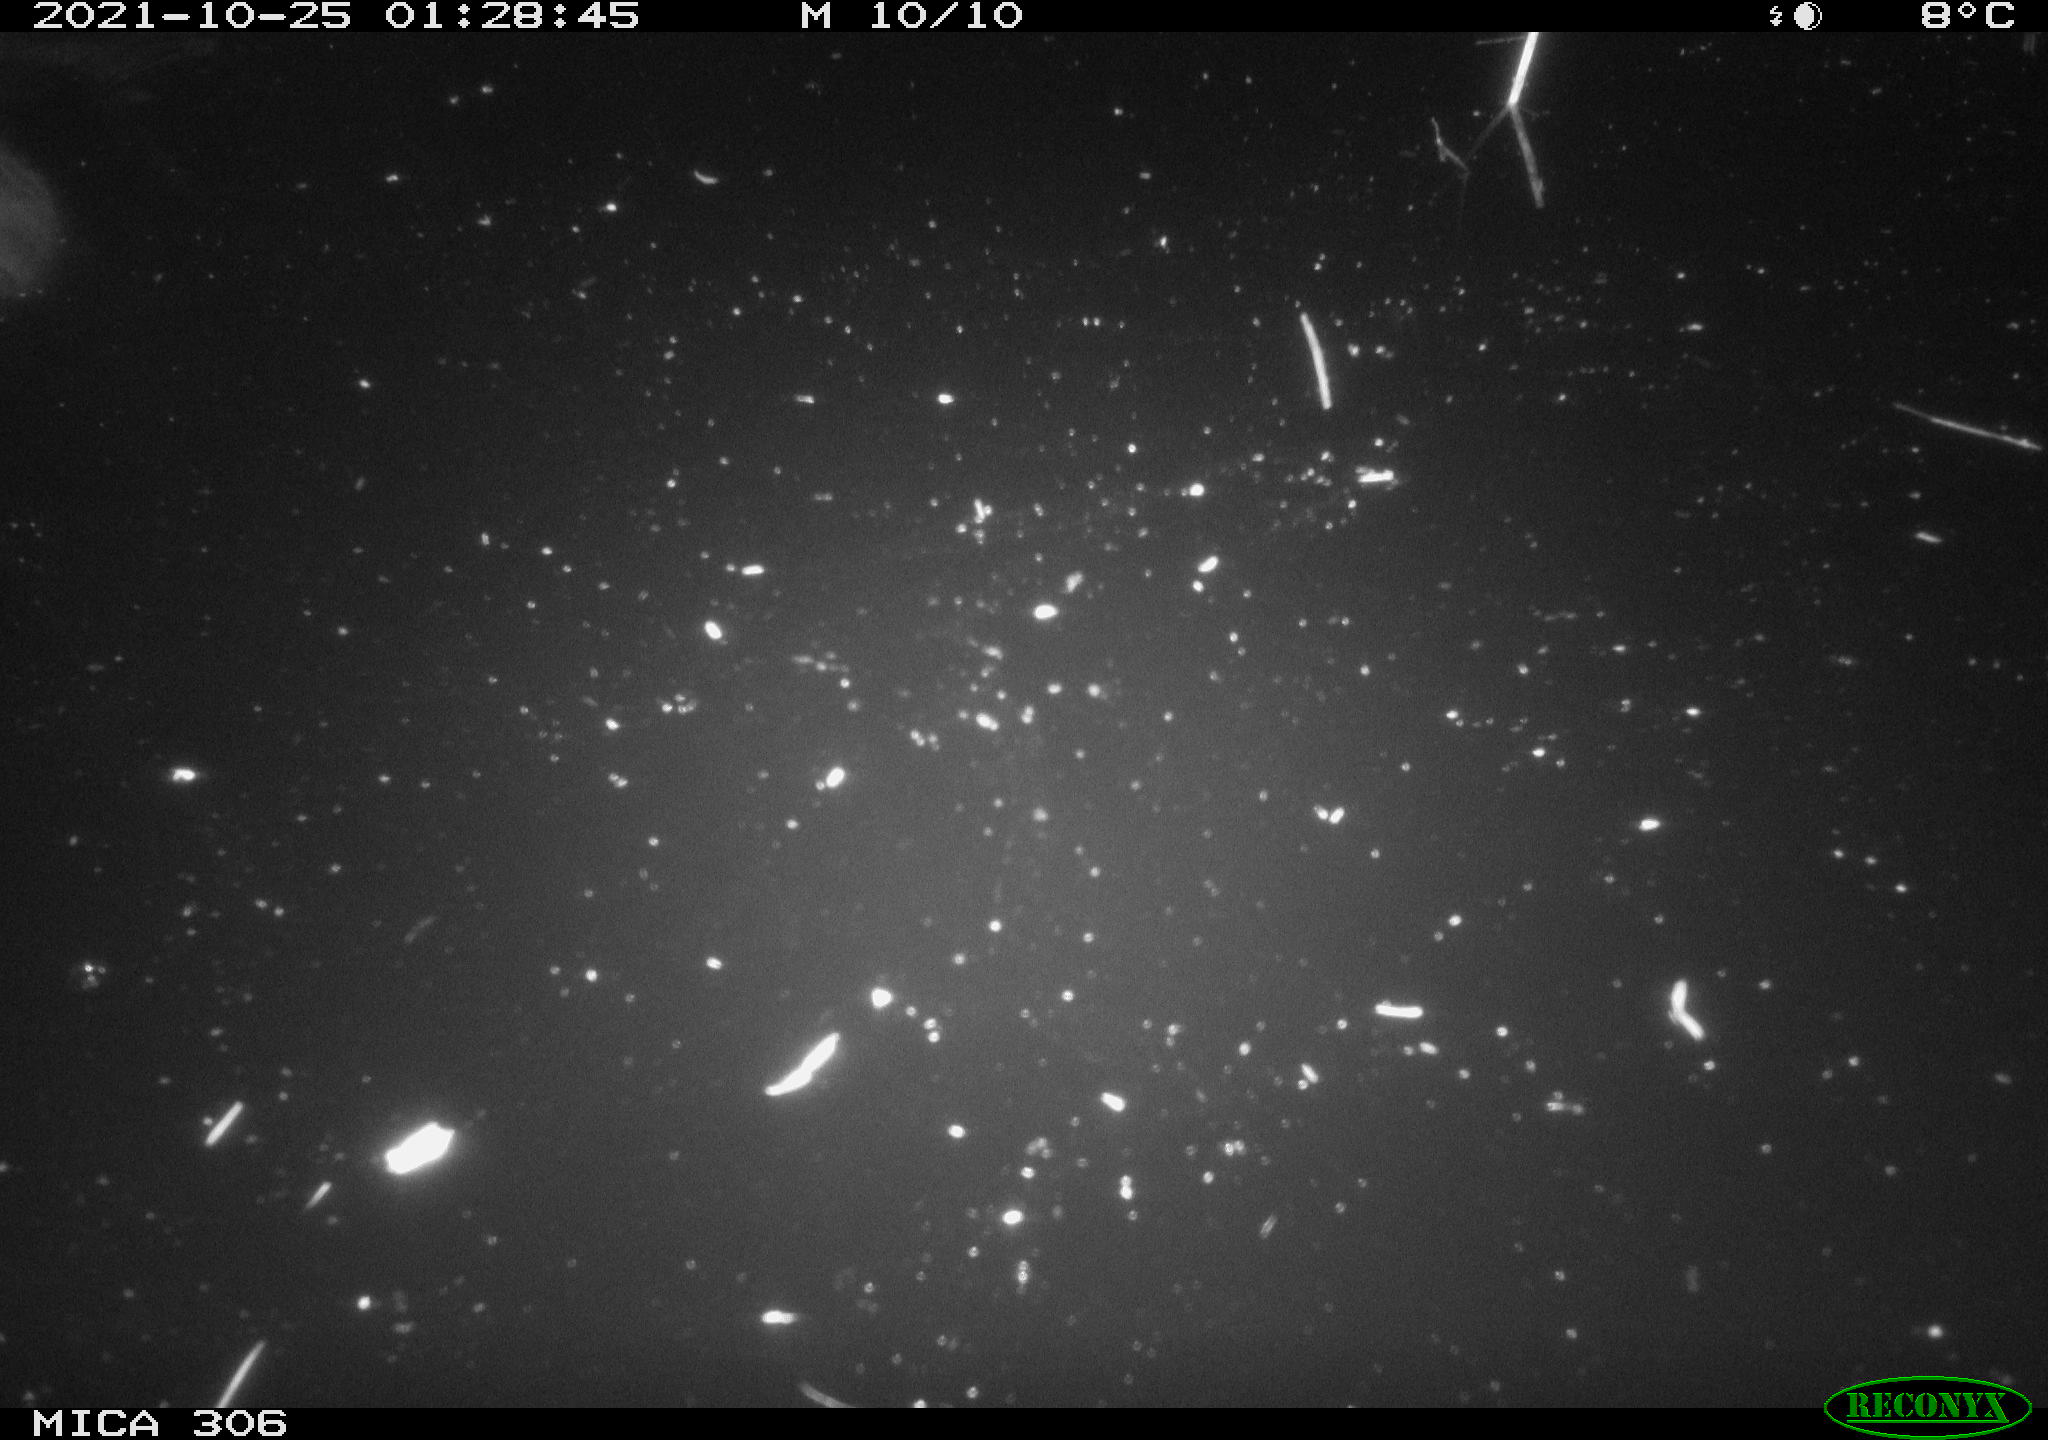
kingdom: Animalia
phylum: Chordata
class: Mammalia
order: Rodentia
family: Muridae
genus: Rattus
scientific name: Rattus norvegicus
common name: Brown rat
